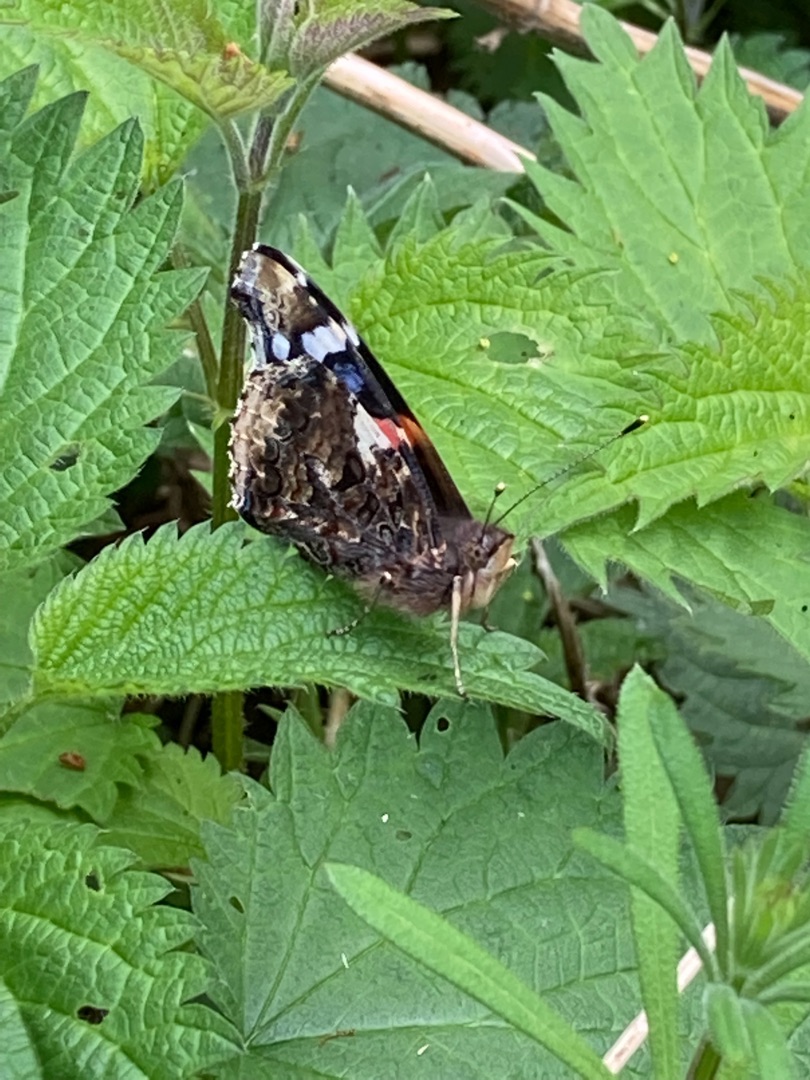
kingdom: Animalia
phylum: Arthropoda
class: Insecta
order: Lepidoptera
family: Nymphalidae
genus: Vanessa
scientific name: Vanessa atalanta
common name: Admiral
